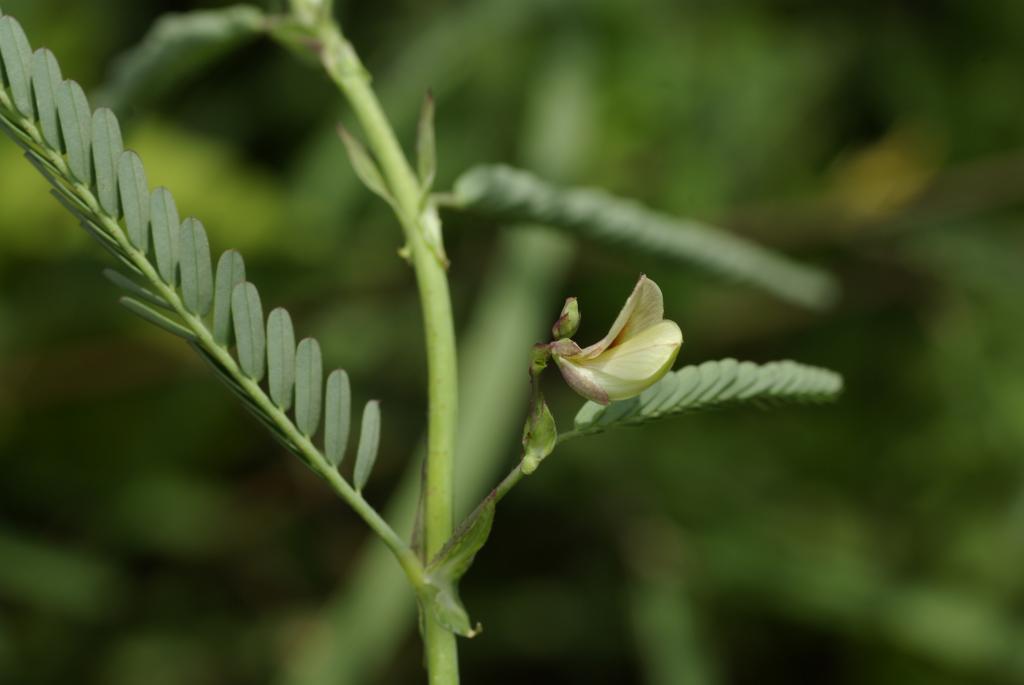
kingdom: Plantae
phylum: Tracheophyta
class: Magnoliopsida
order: Fabales
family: Fabaceae
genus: Aeschynomene
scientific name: Aeschynomene indica
